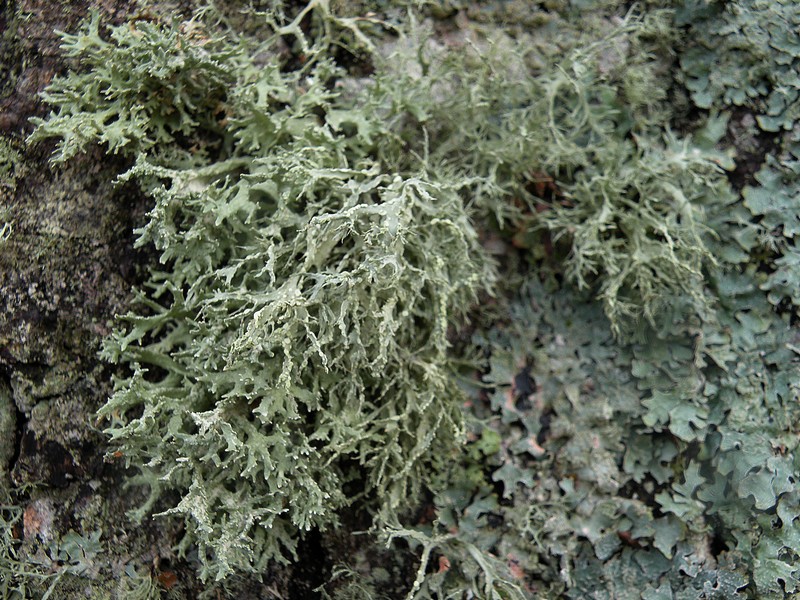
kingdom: Fungi
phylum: Ascomycota
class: Lecanoromycetes
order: Lecanorales
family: Ramalinaceae
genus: Ramalina
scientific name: Ramalina farinacea
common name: melet grenlav
